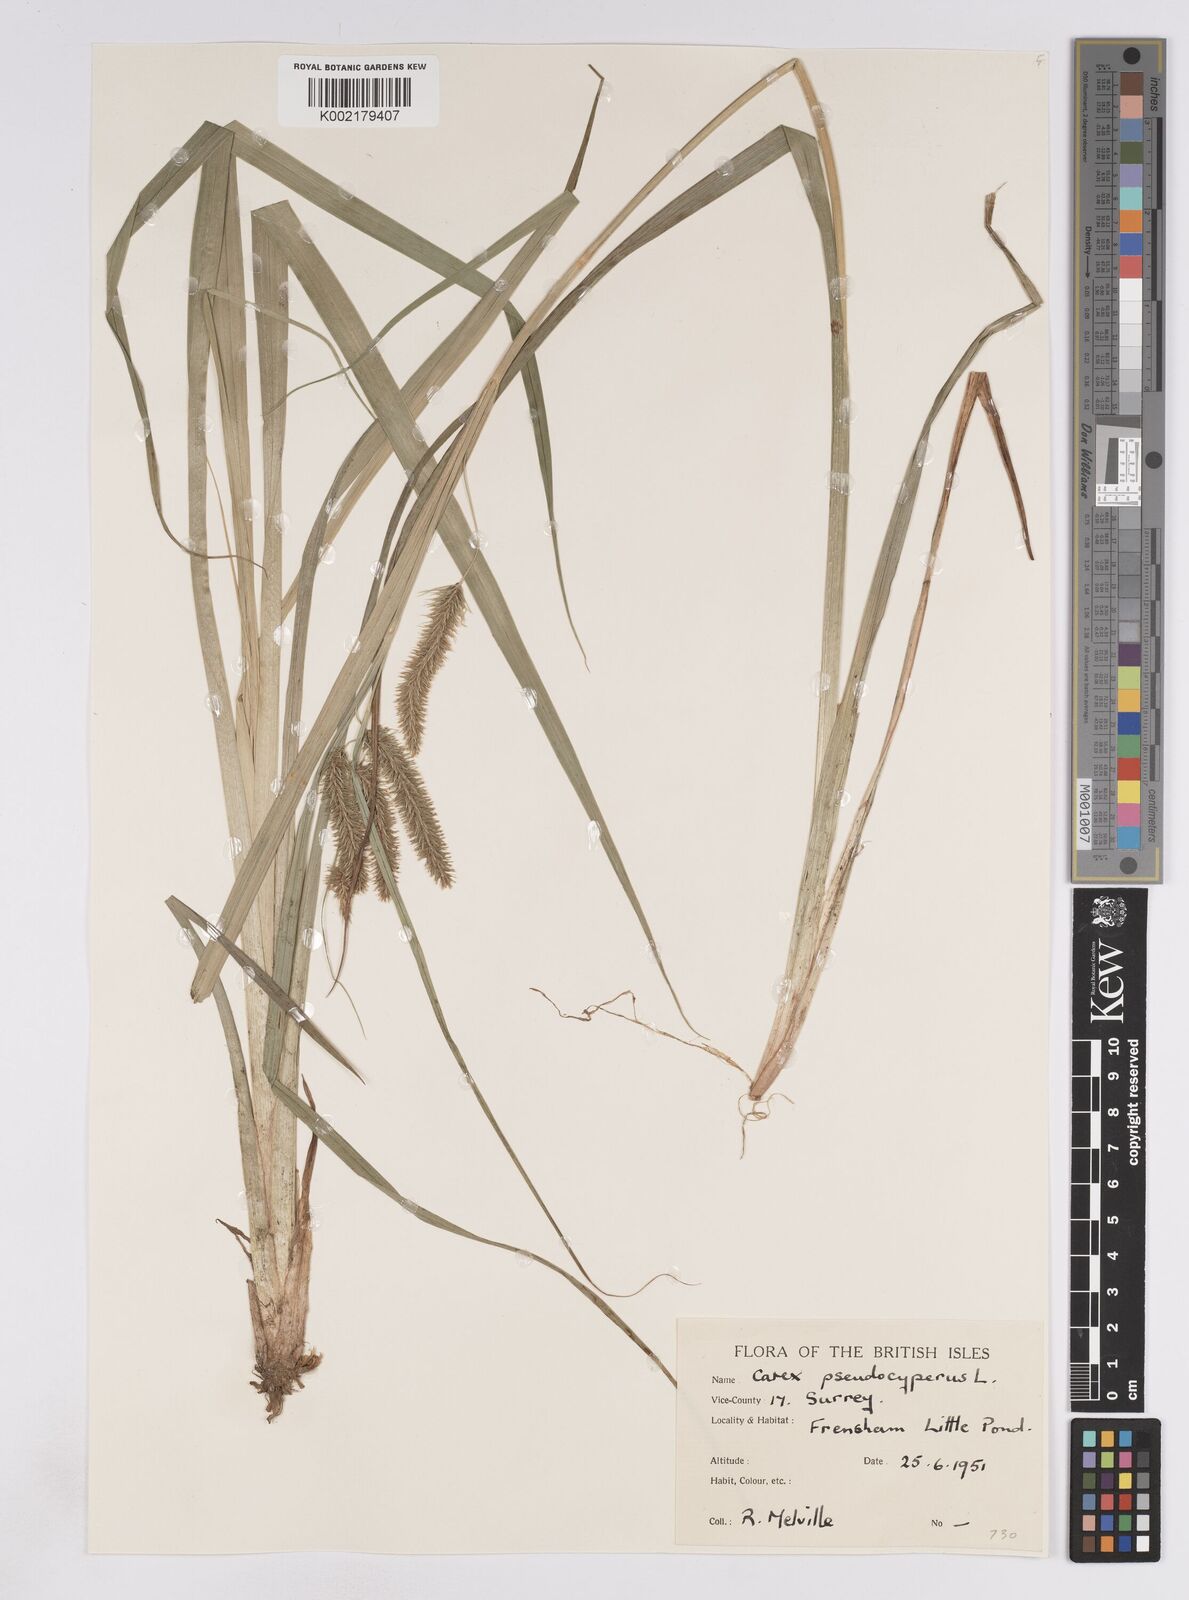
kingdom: Plantae
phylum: Tracheophyta
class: Liliopsida
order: Poales
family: Cyperaceae
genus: Carex
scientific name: Carex pseudocyperus
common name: Cyperus sedge
